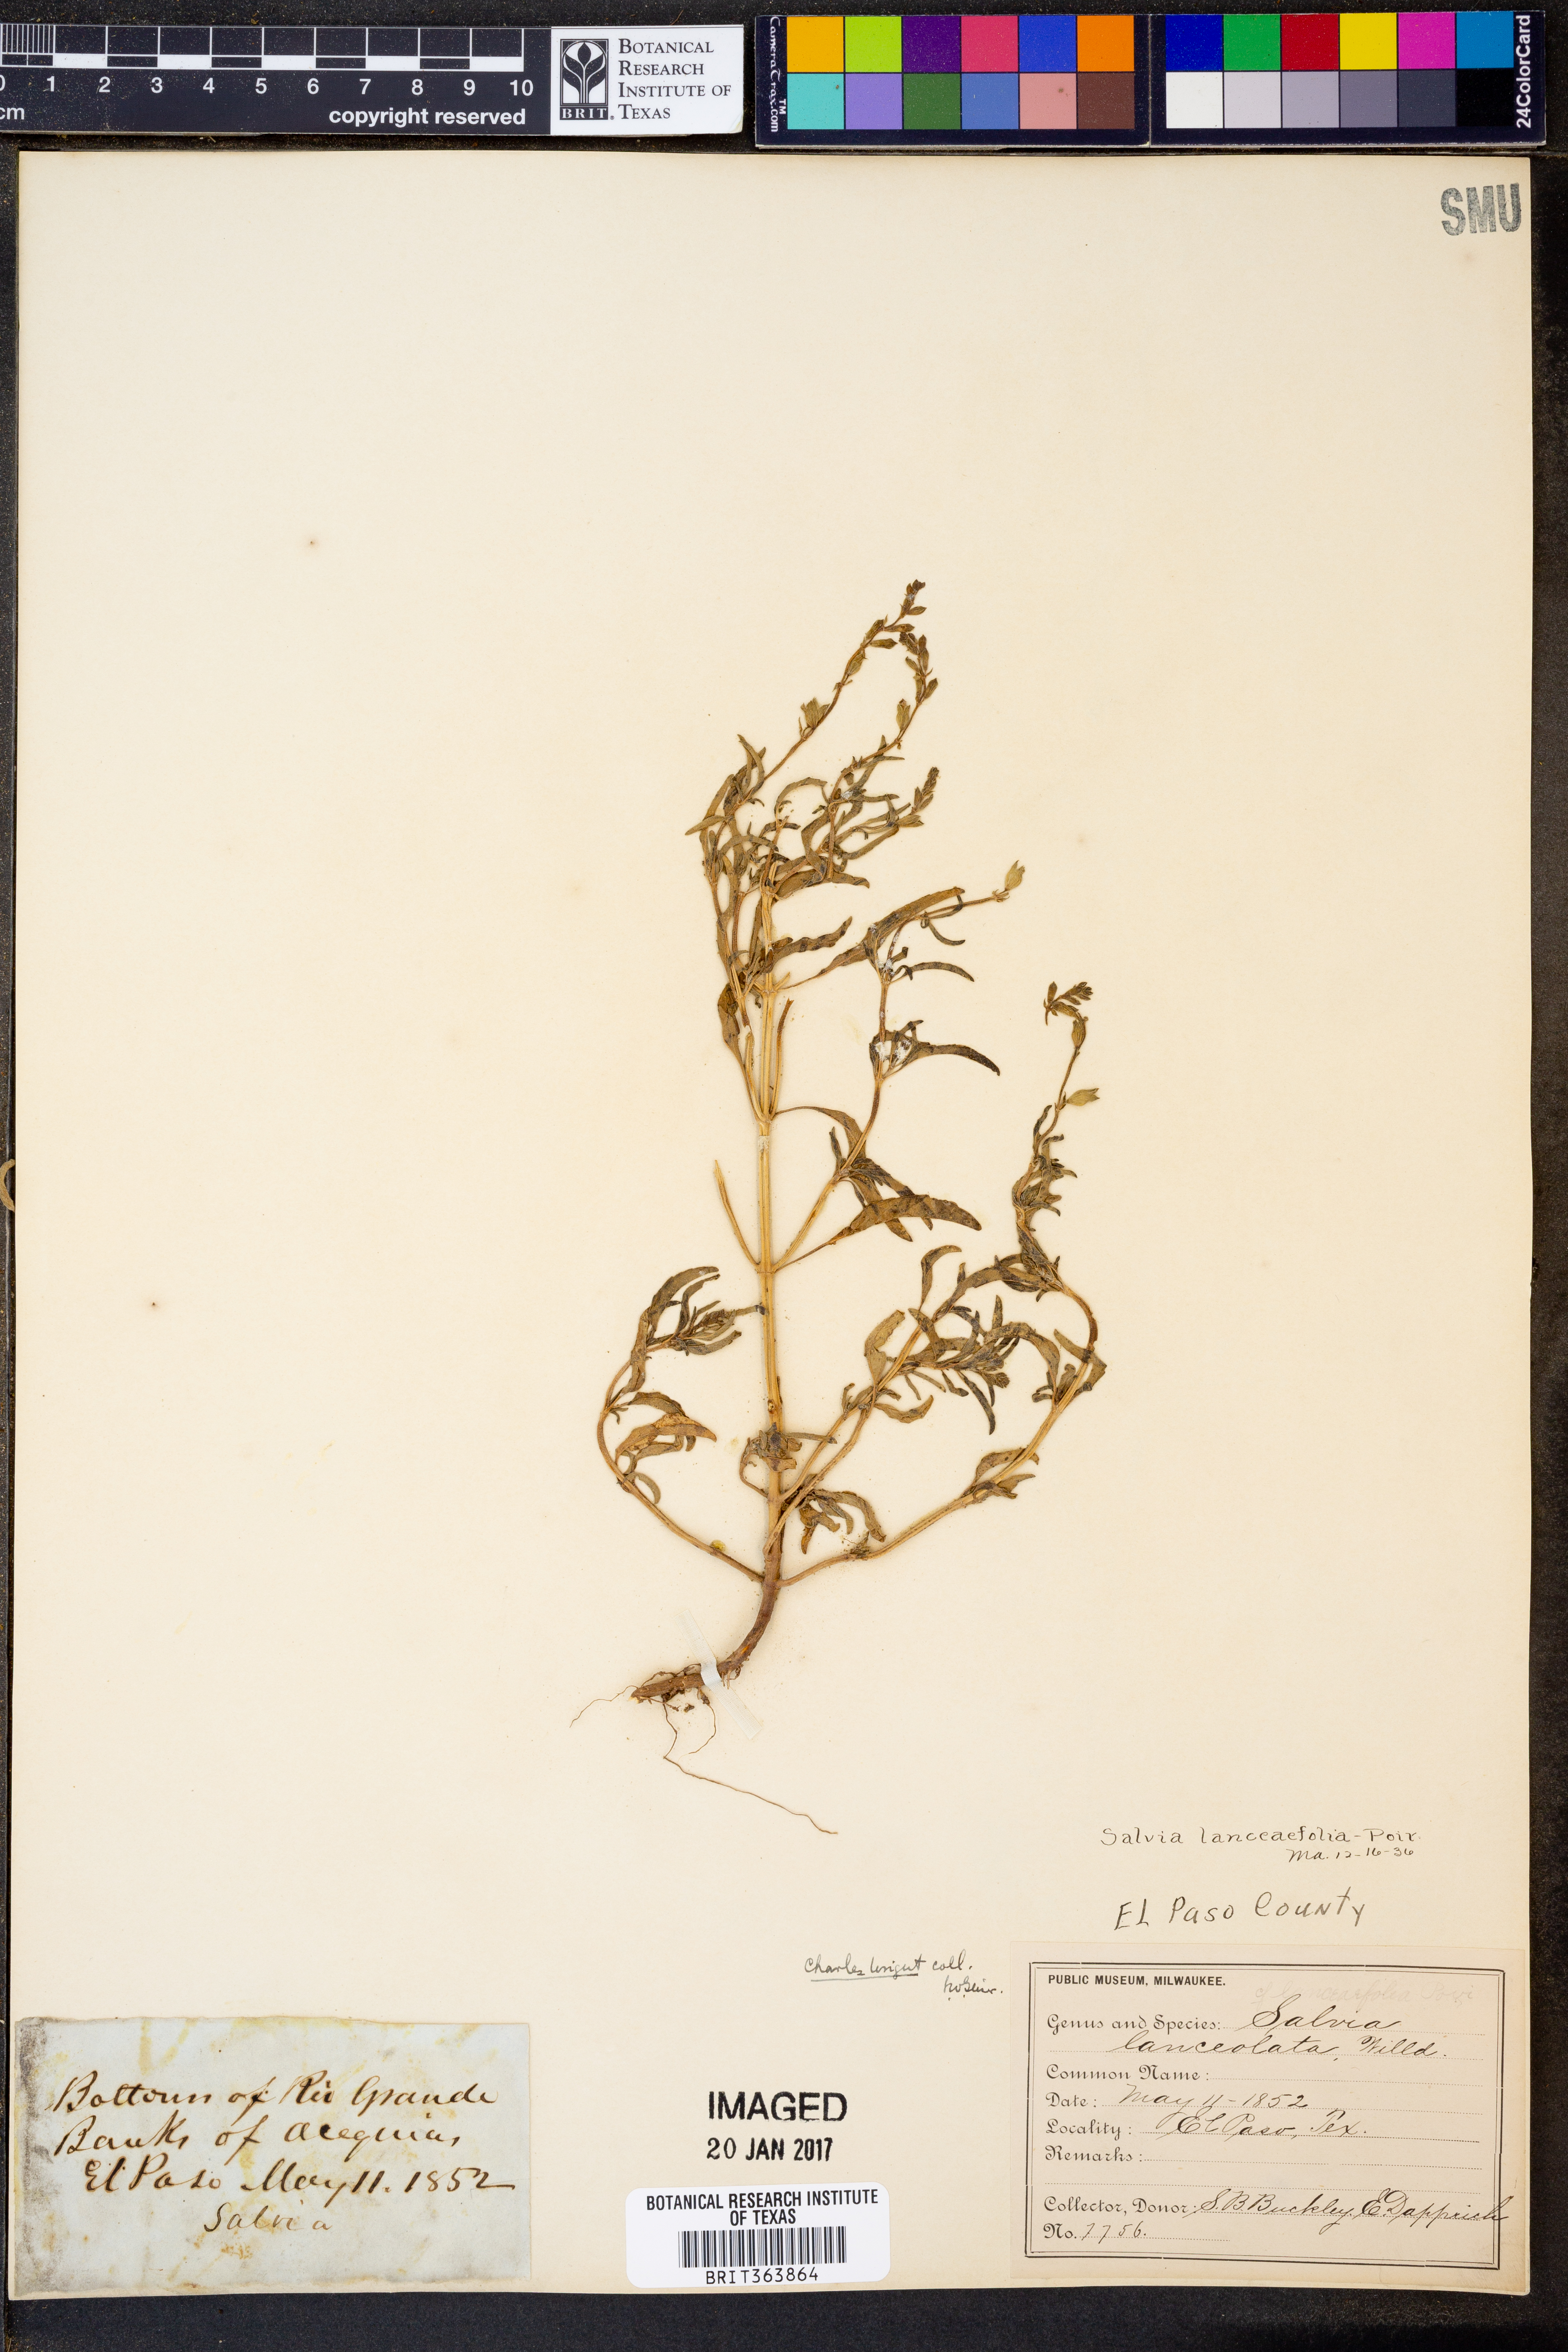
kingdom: Plantae
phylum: Tracheophyta
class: Magnoliopsida
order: Lamiales
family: Lamiaceae
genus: Salvia
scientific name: Salvia reflexa
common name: Mintweed
